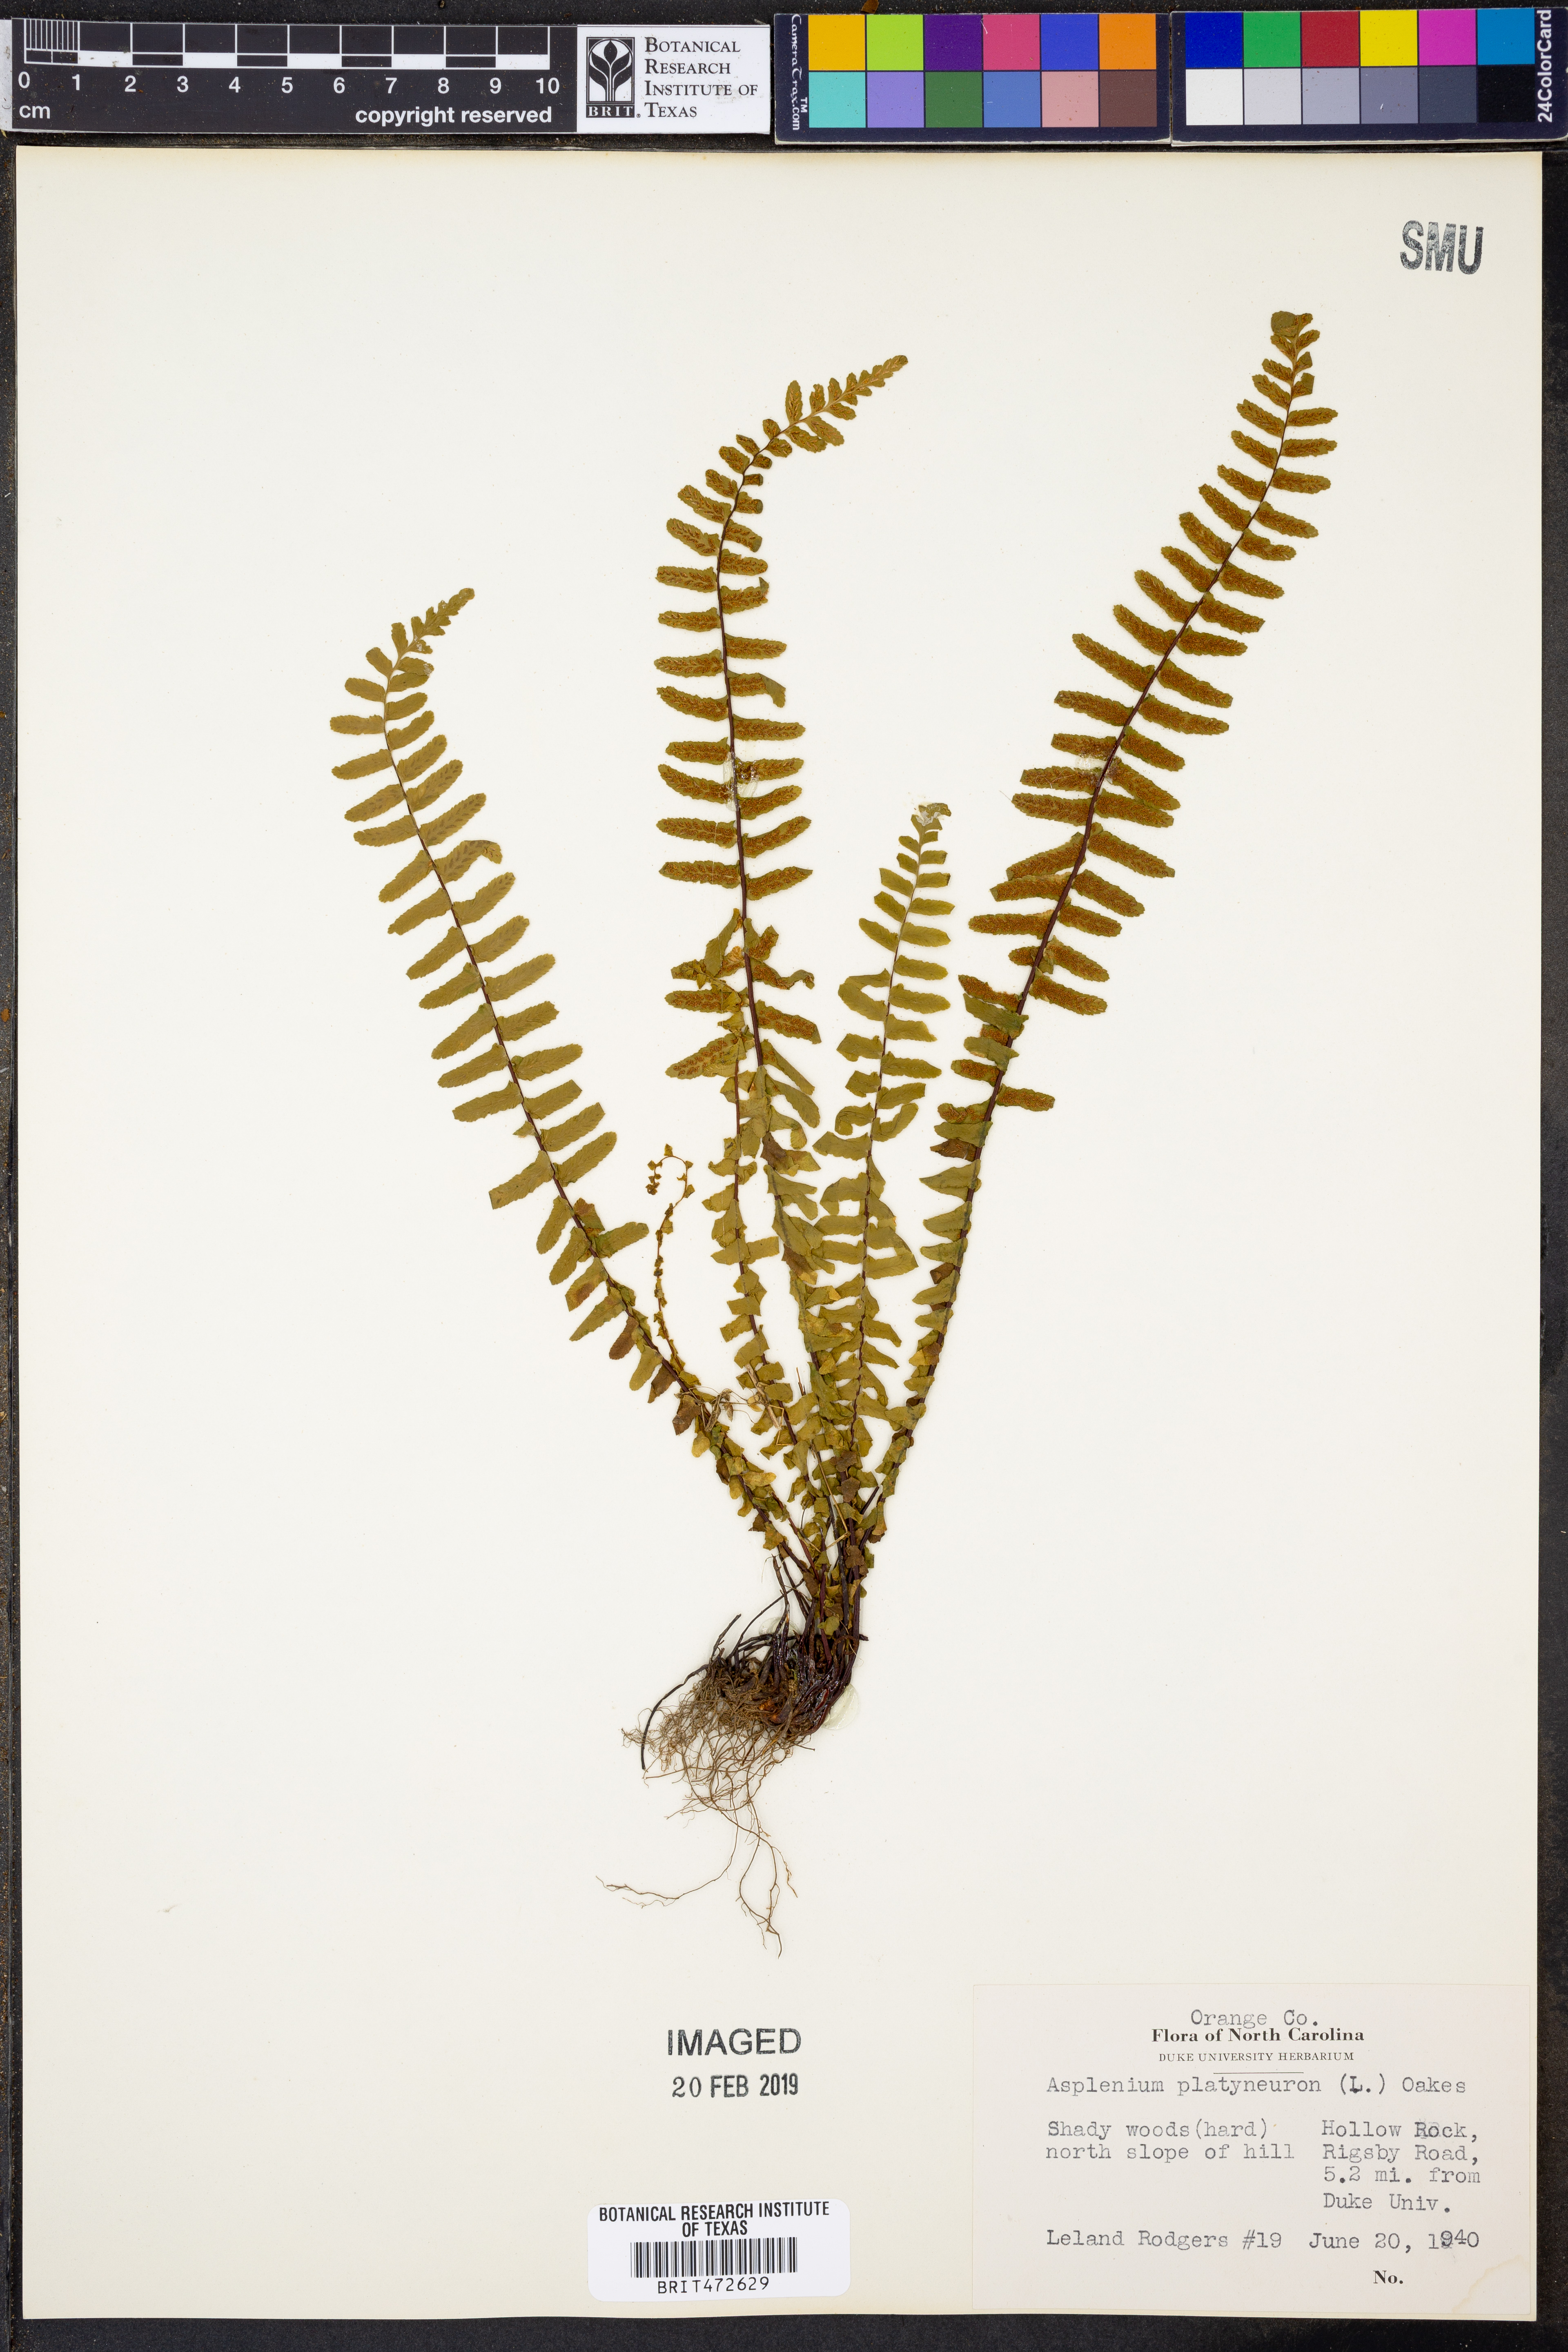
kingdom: Plantae
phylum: Tracheophyta
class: Polypodiopsida
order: Polypodiales
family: Aspleniaceae
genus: Asplenium
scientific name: Asplenium platyneuron
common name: Ebony spleenwort
